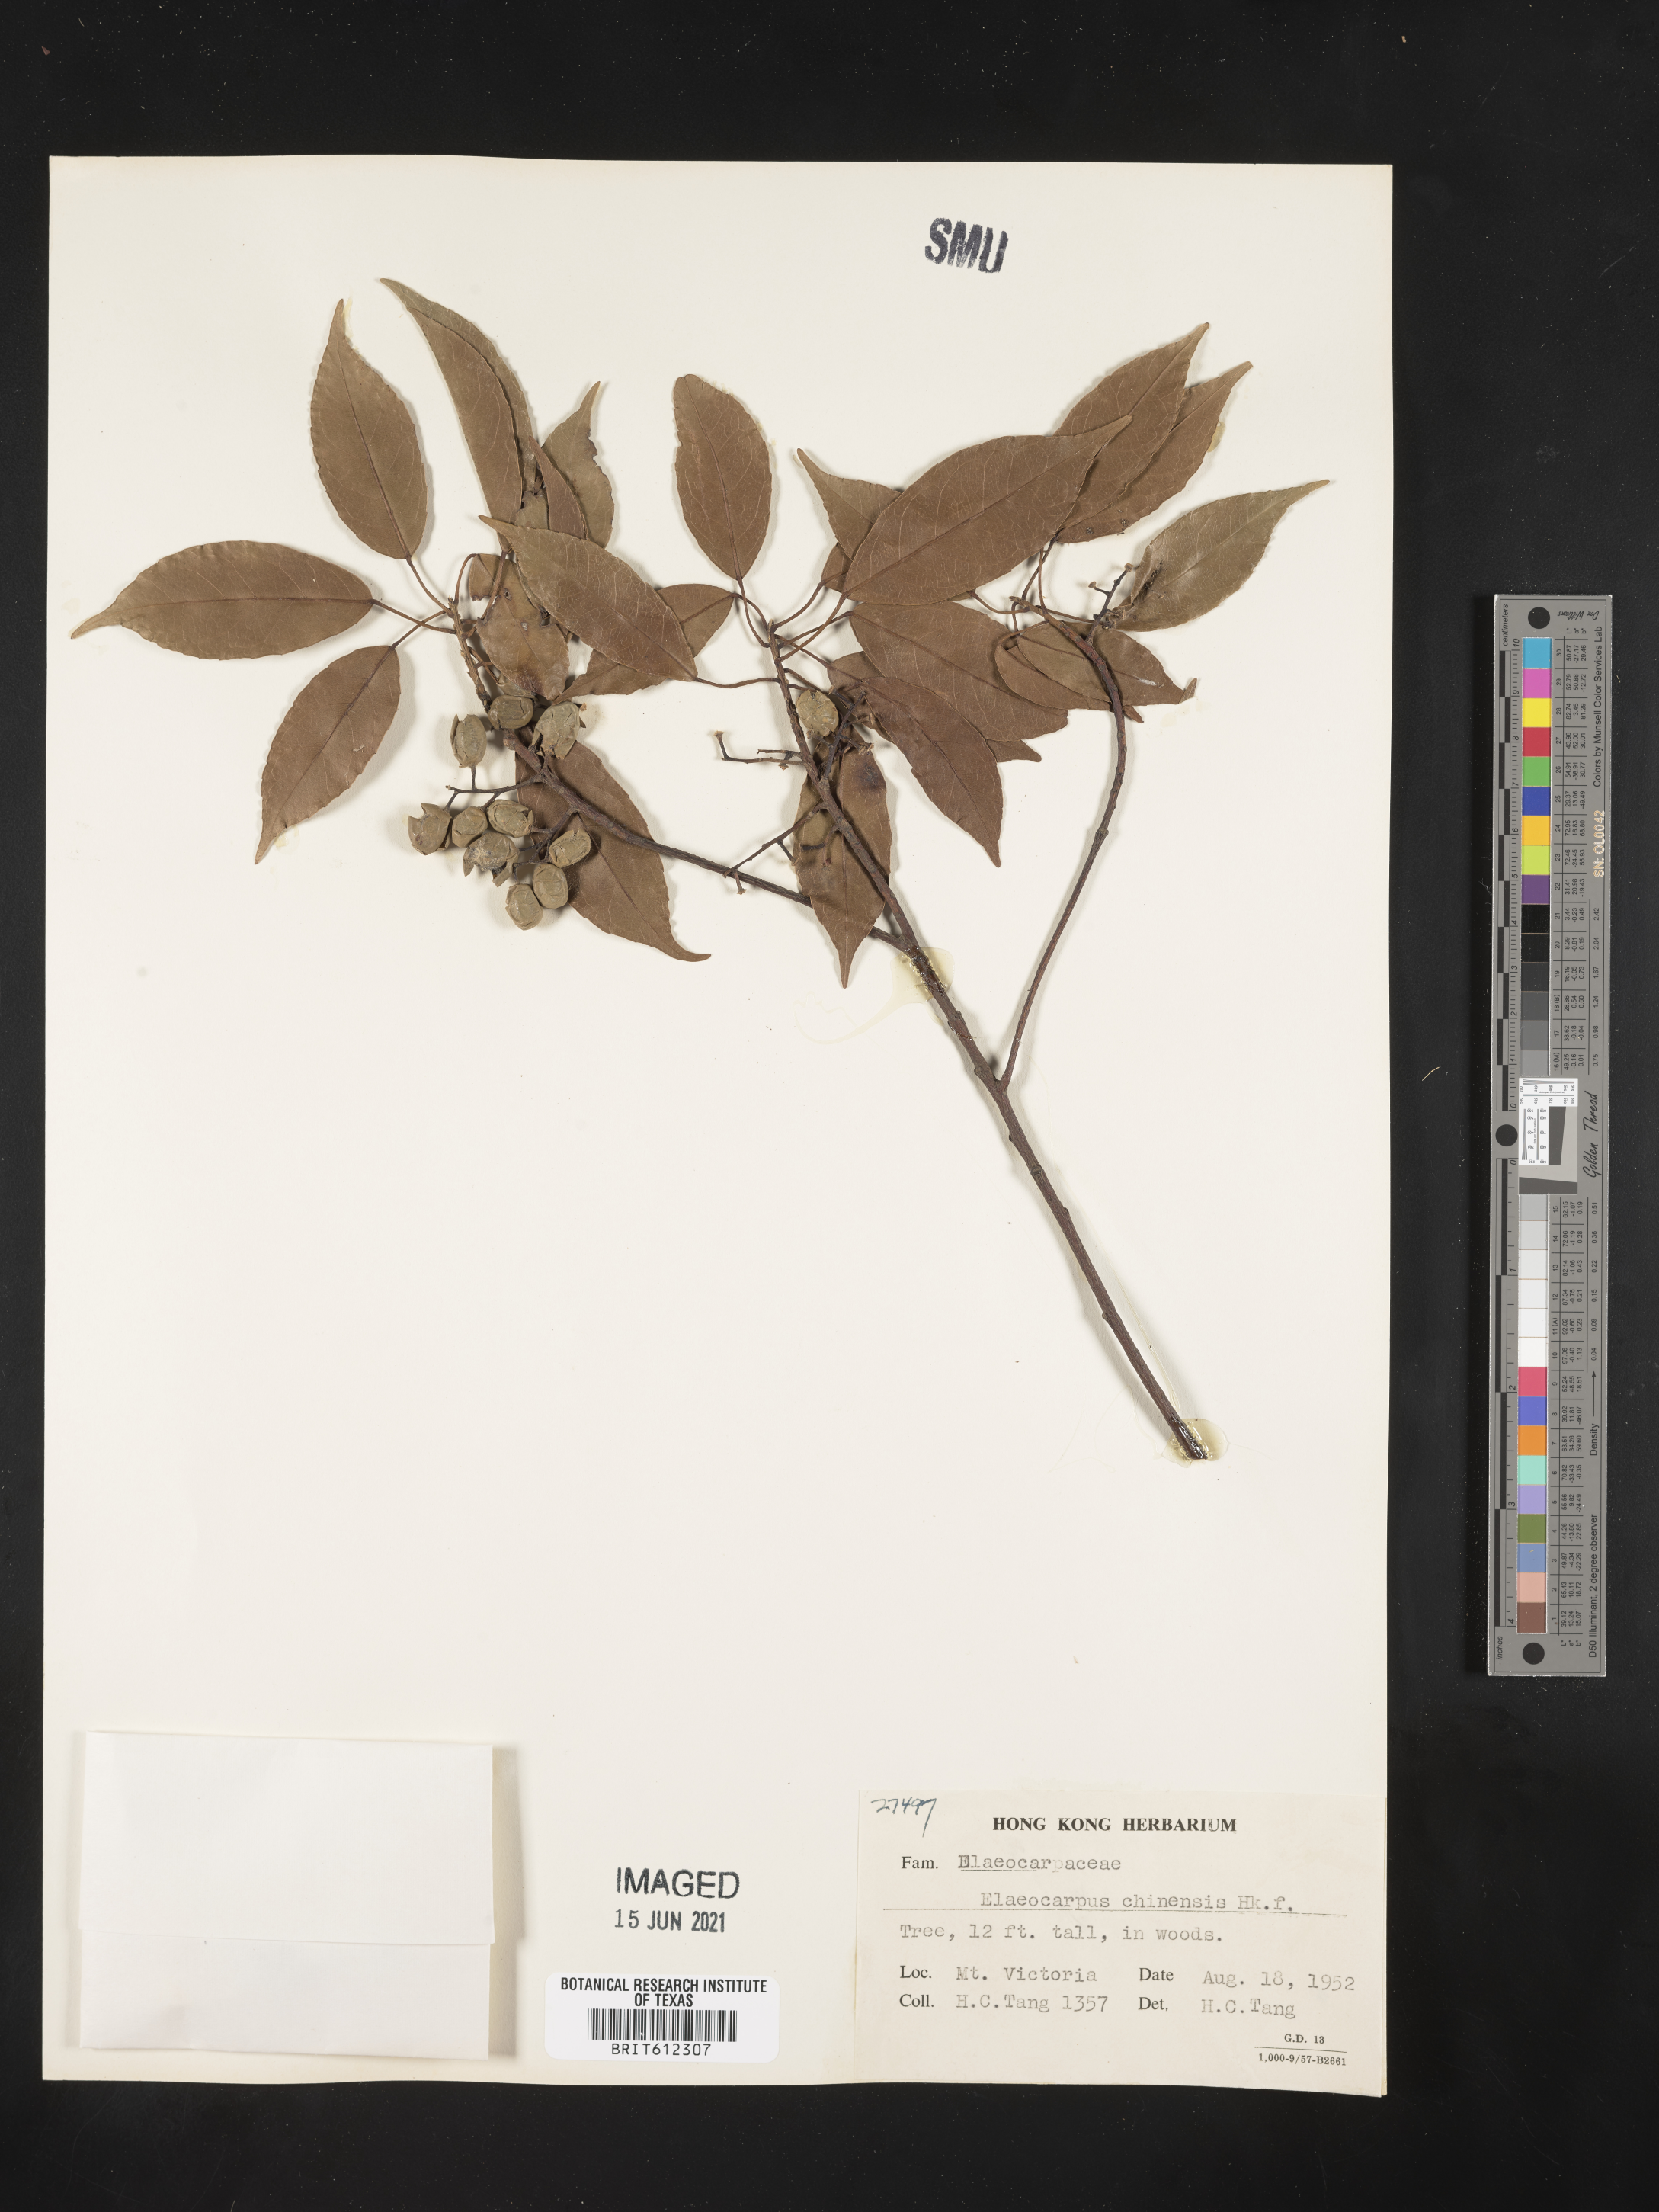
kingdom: Plantae
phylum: Tracheophyta
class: Magnoliopsida
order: Oxalidales
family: Elaeocarpaceae
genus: Elaeocarpus
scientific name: Elaeocarpus chinensis
